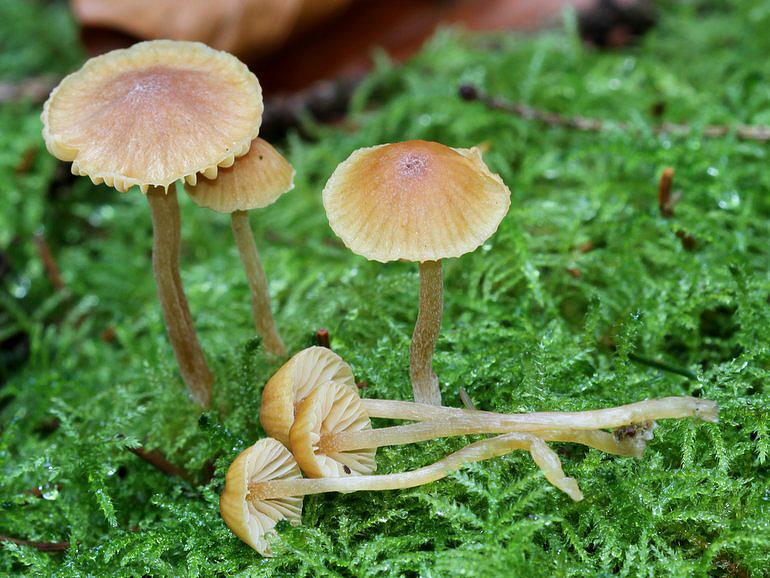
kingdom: Fungi
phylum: Basidiomycota
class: Agaricomycetes
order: Agaricales
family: Hymenogastraceae
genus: Galerina
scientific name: Galerina subclavata
